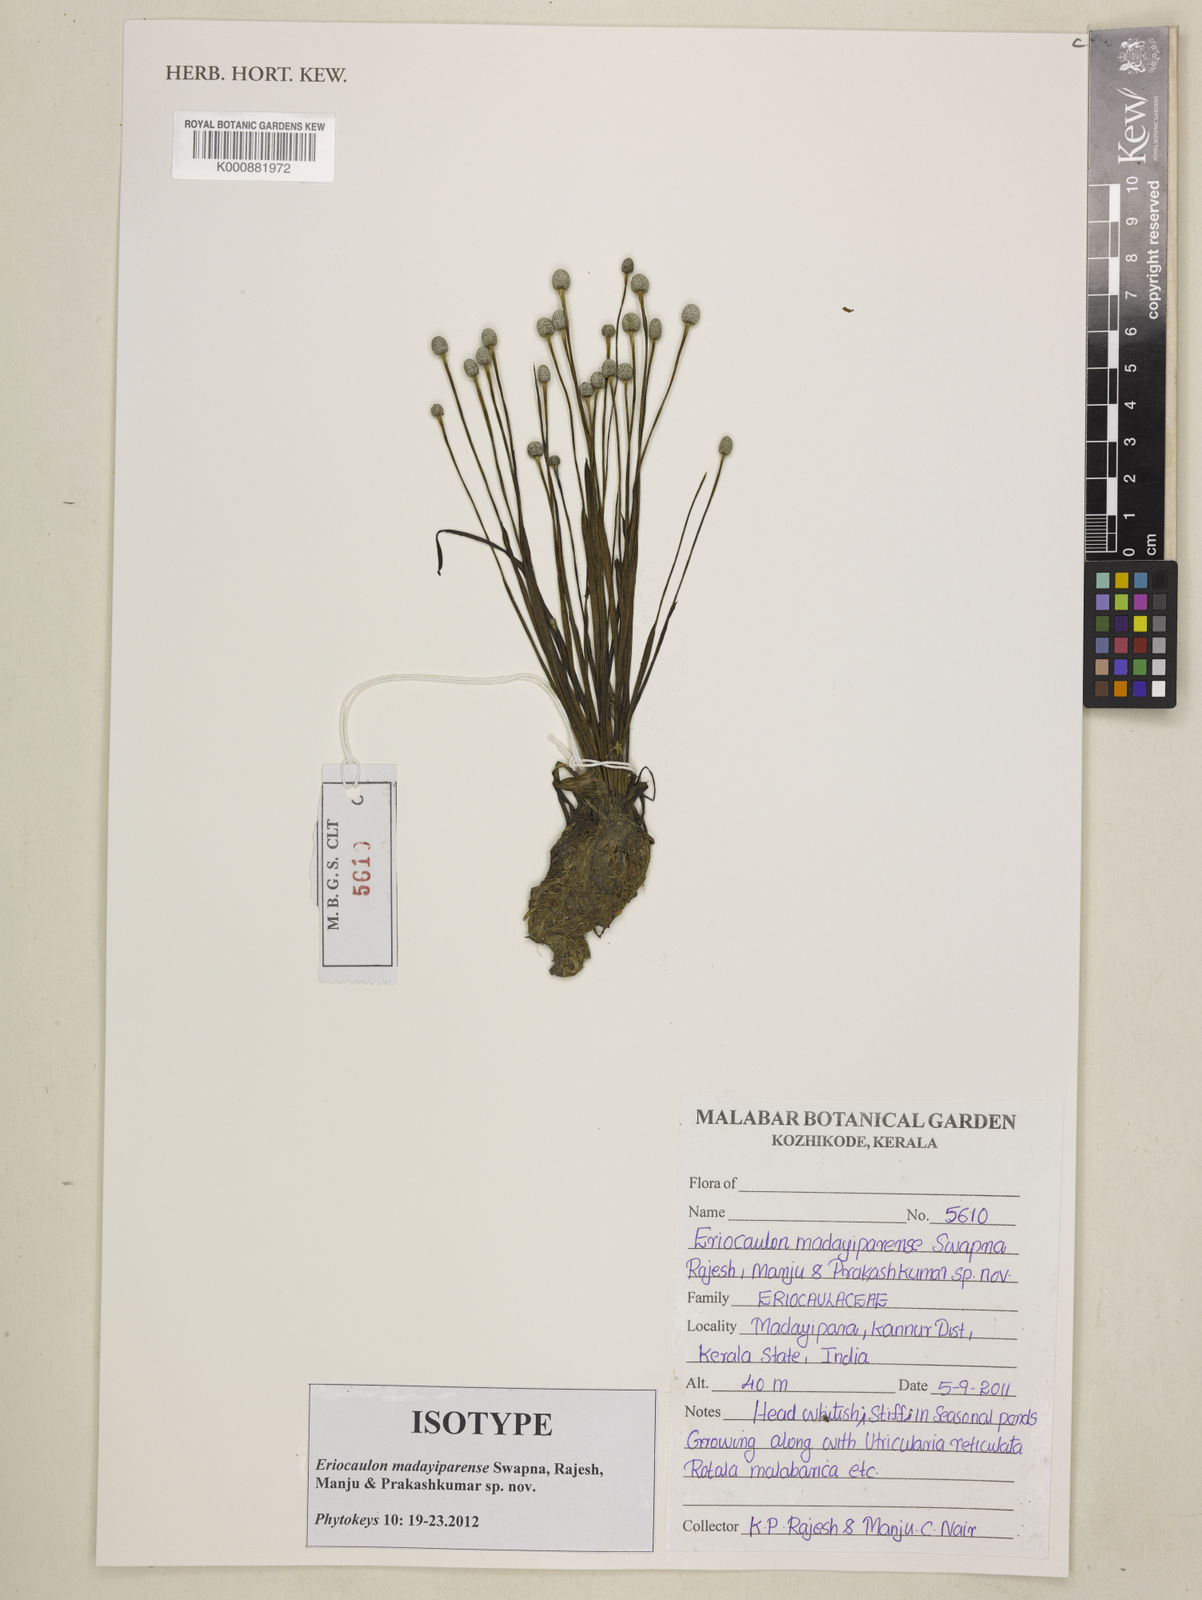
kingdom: Plantae
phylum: Tracheophyta
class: Liliopsida
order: Poales
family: Eriocaulaceae
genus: Eriocaulon
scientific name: Eriocaulon madayiparense
